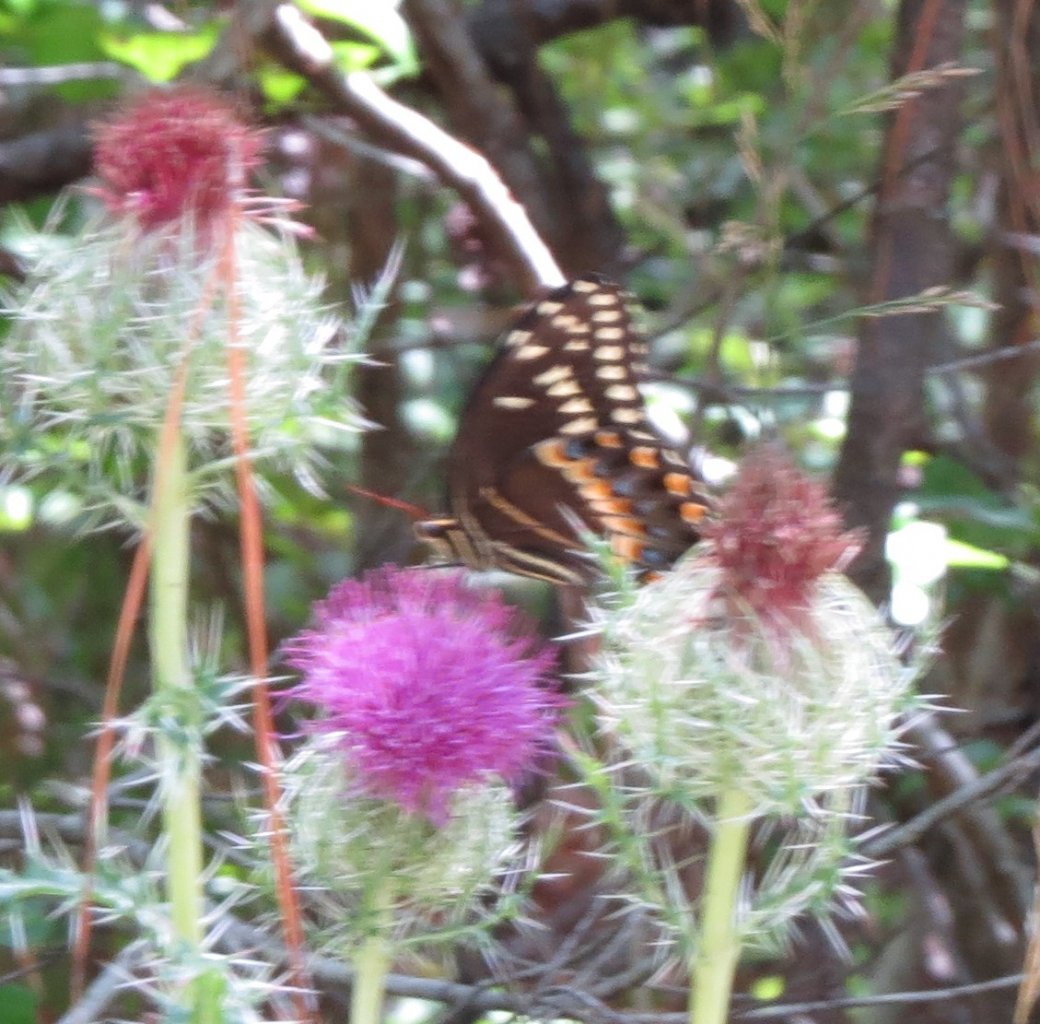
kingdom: Animalia
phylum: Arthropoda
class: Insecta
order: Lepidoptera
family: Papilionidae
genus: Pterourus
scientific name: Pterourus palamedes
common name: Palamedes Swallowtail
